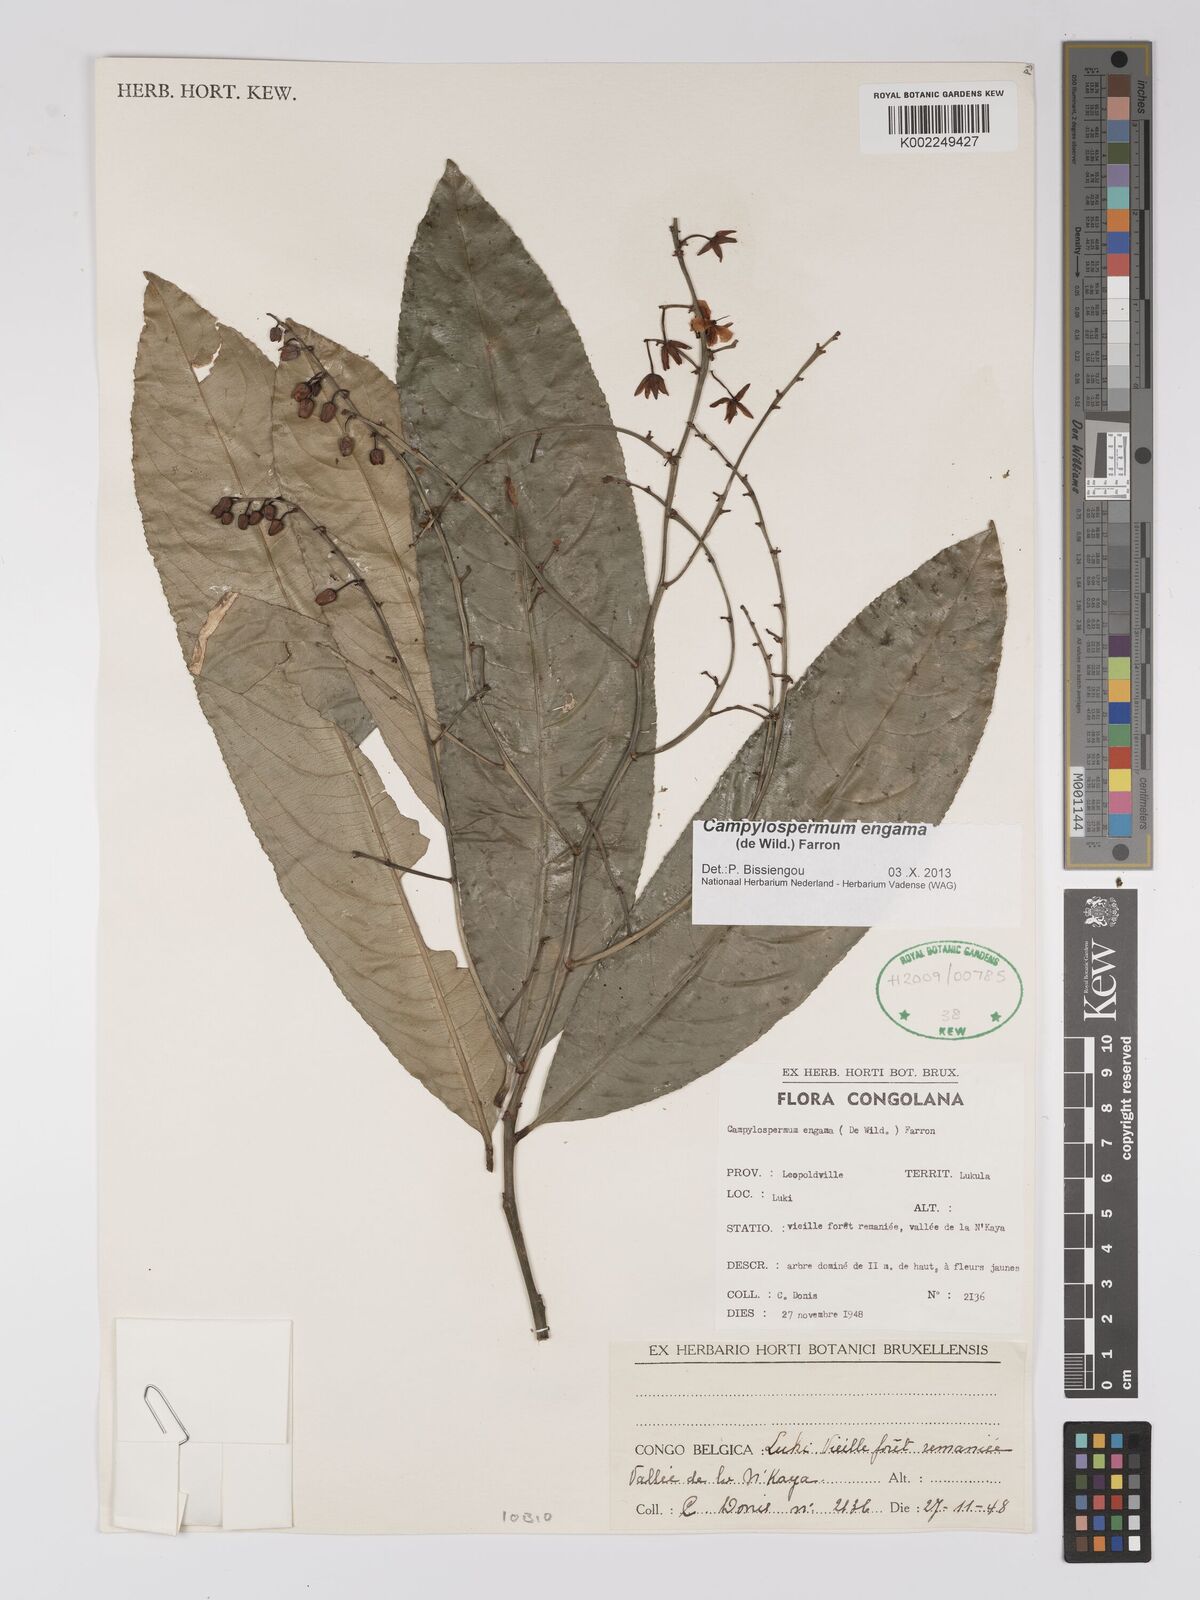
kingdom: Plantae
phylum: Tracheophyta
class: Magnoliopsida
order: Malpighiales
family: Ochnaceae
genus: Campylospermum
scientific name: Campylospermum engama
